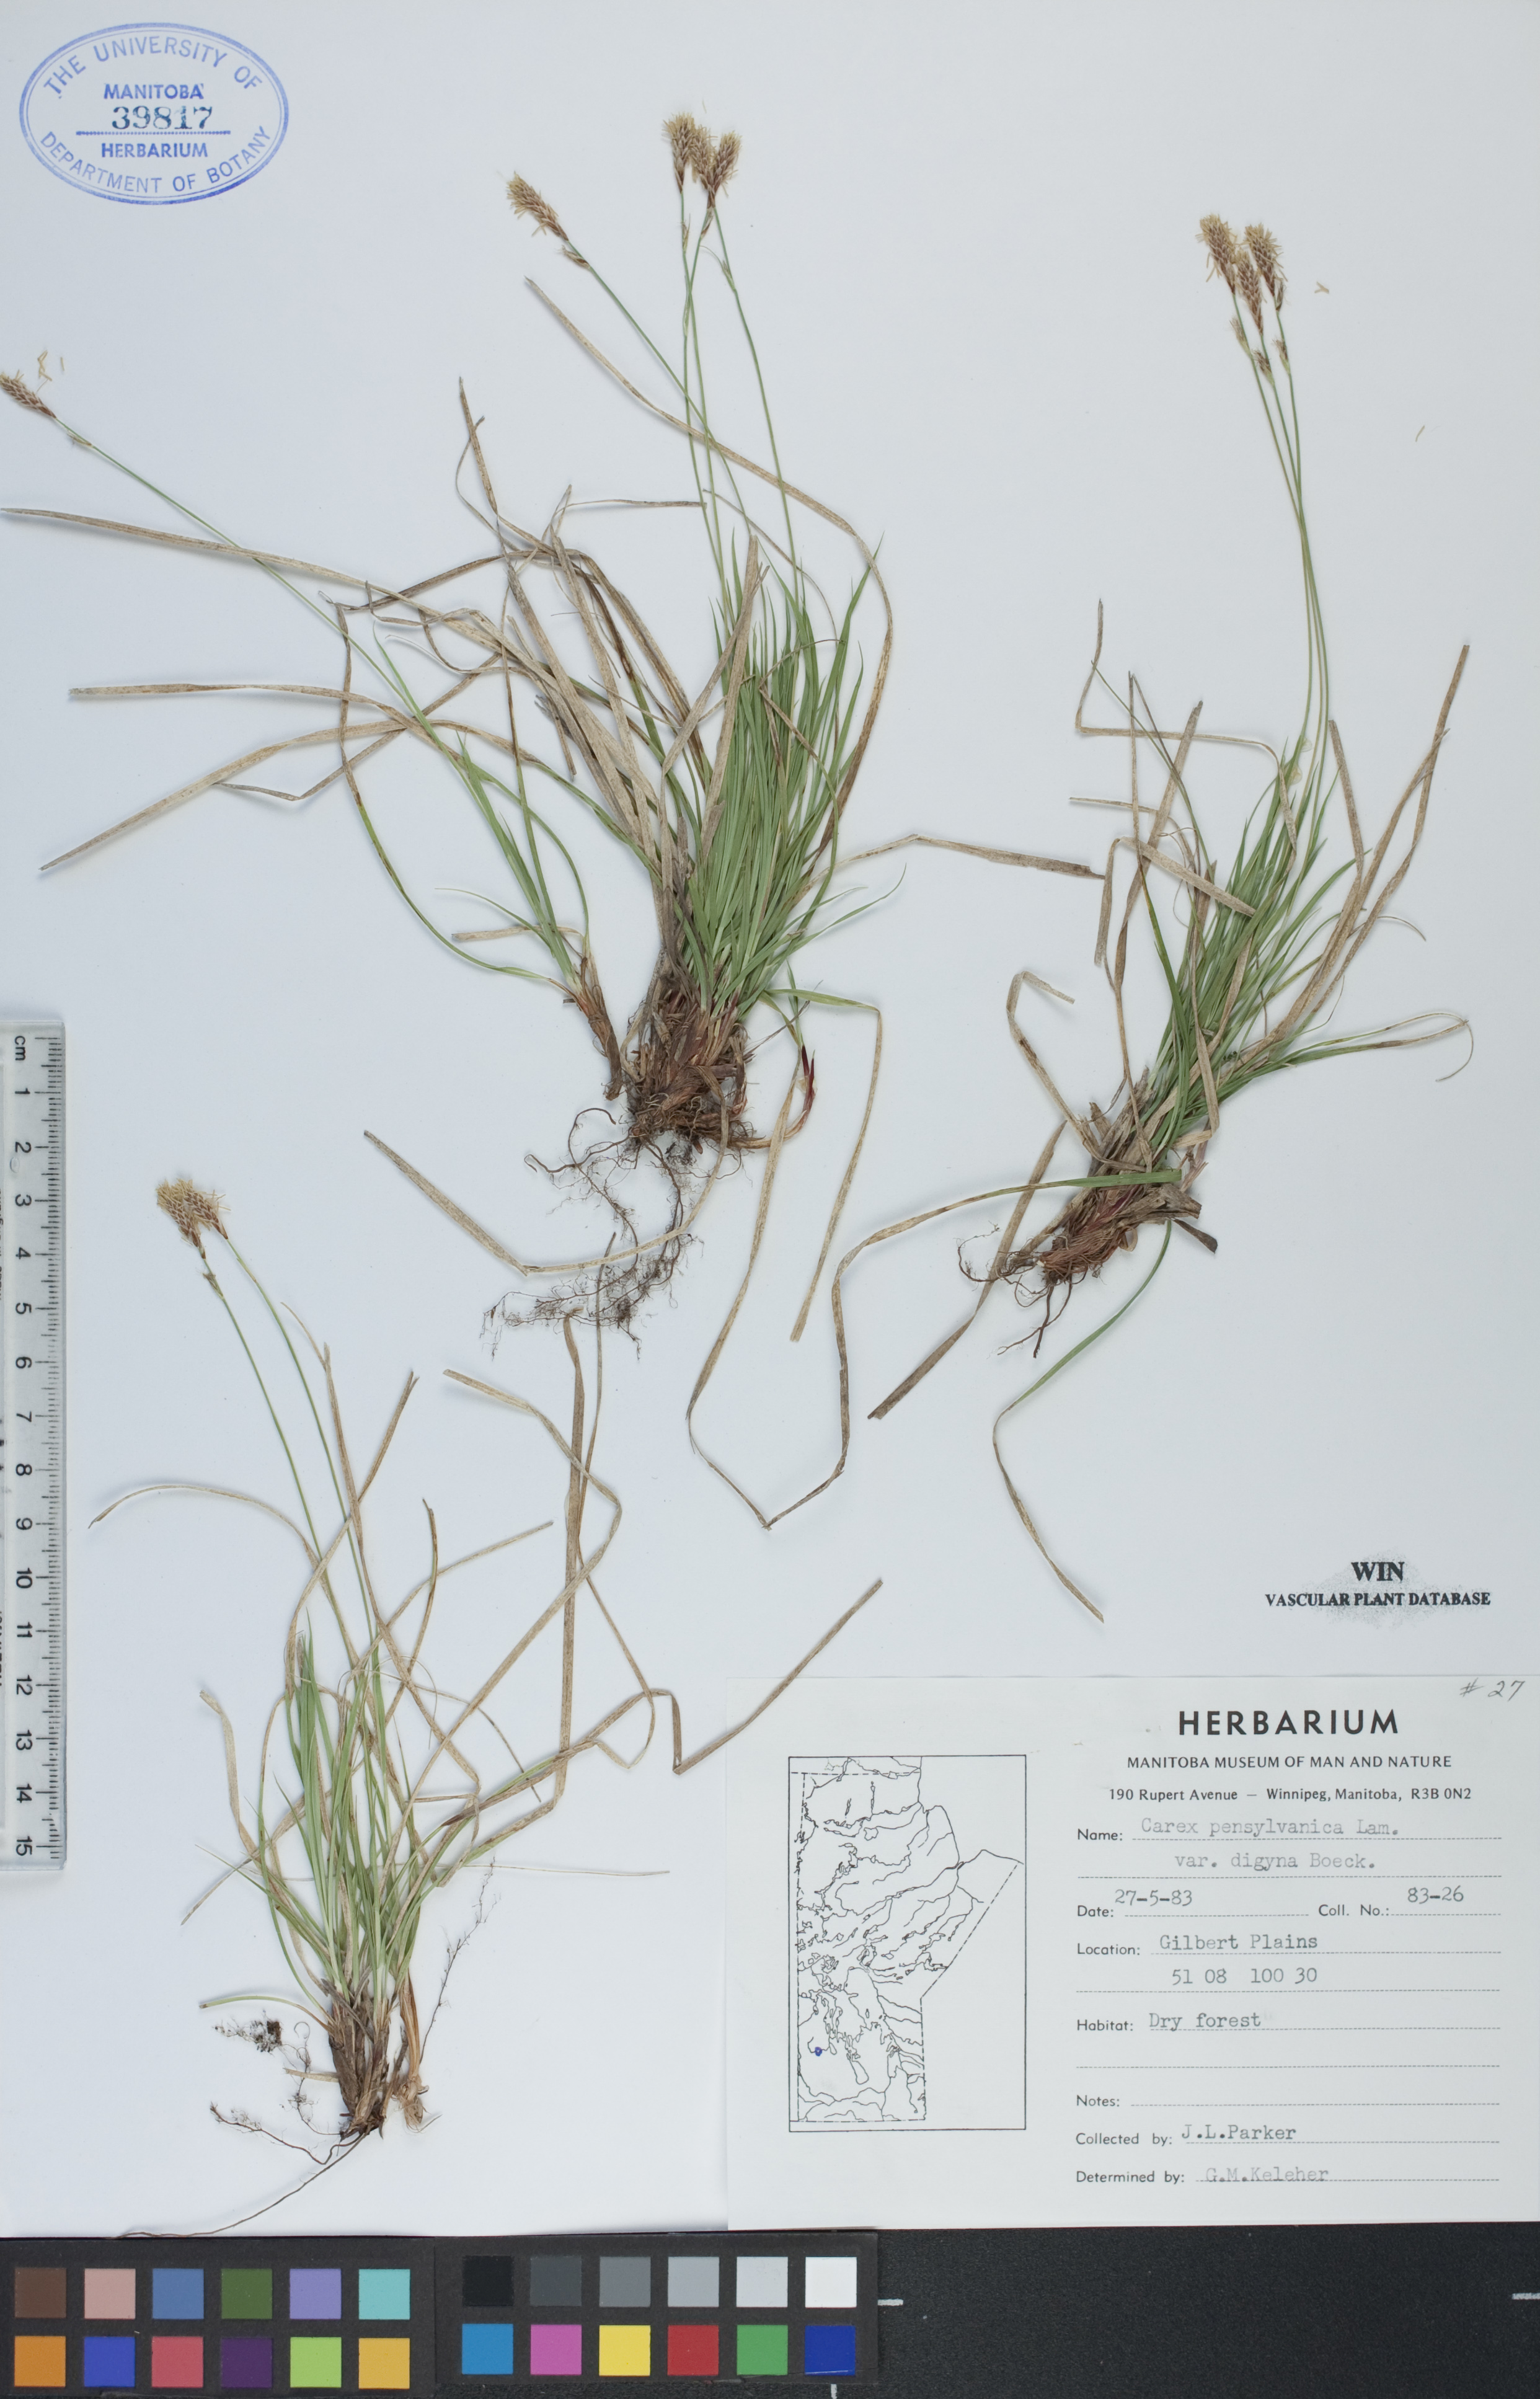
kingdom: Plantae
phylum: Tracheophyta
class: Liliopsida
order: Poales
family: Cyperaceae
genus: Carex
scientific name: Carex pensylvanica
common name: Common oak sedge
